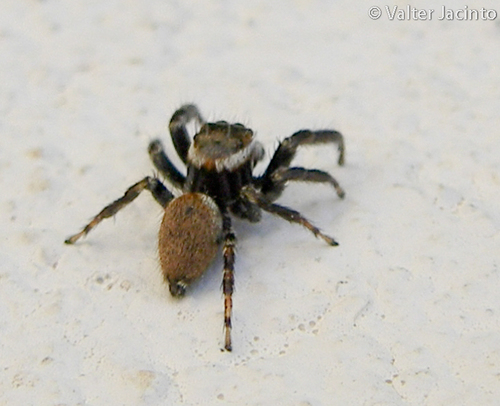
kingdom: Animalia
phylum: Arthropoda
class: Arachnida
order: Araneae
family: Salticidae
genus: Evarcha
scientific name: Evarcha jucunda
